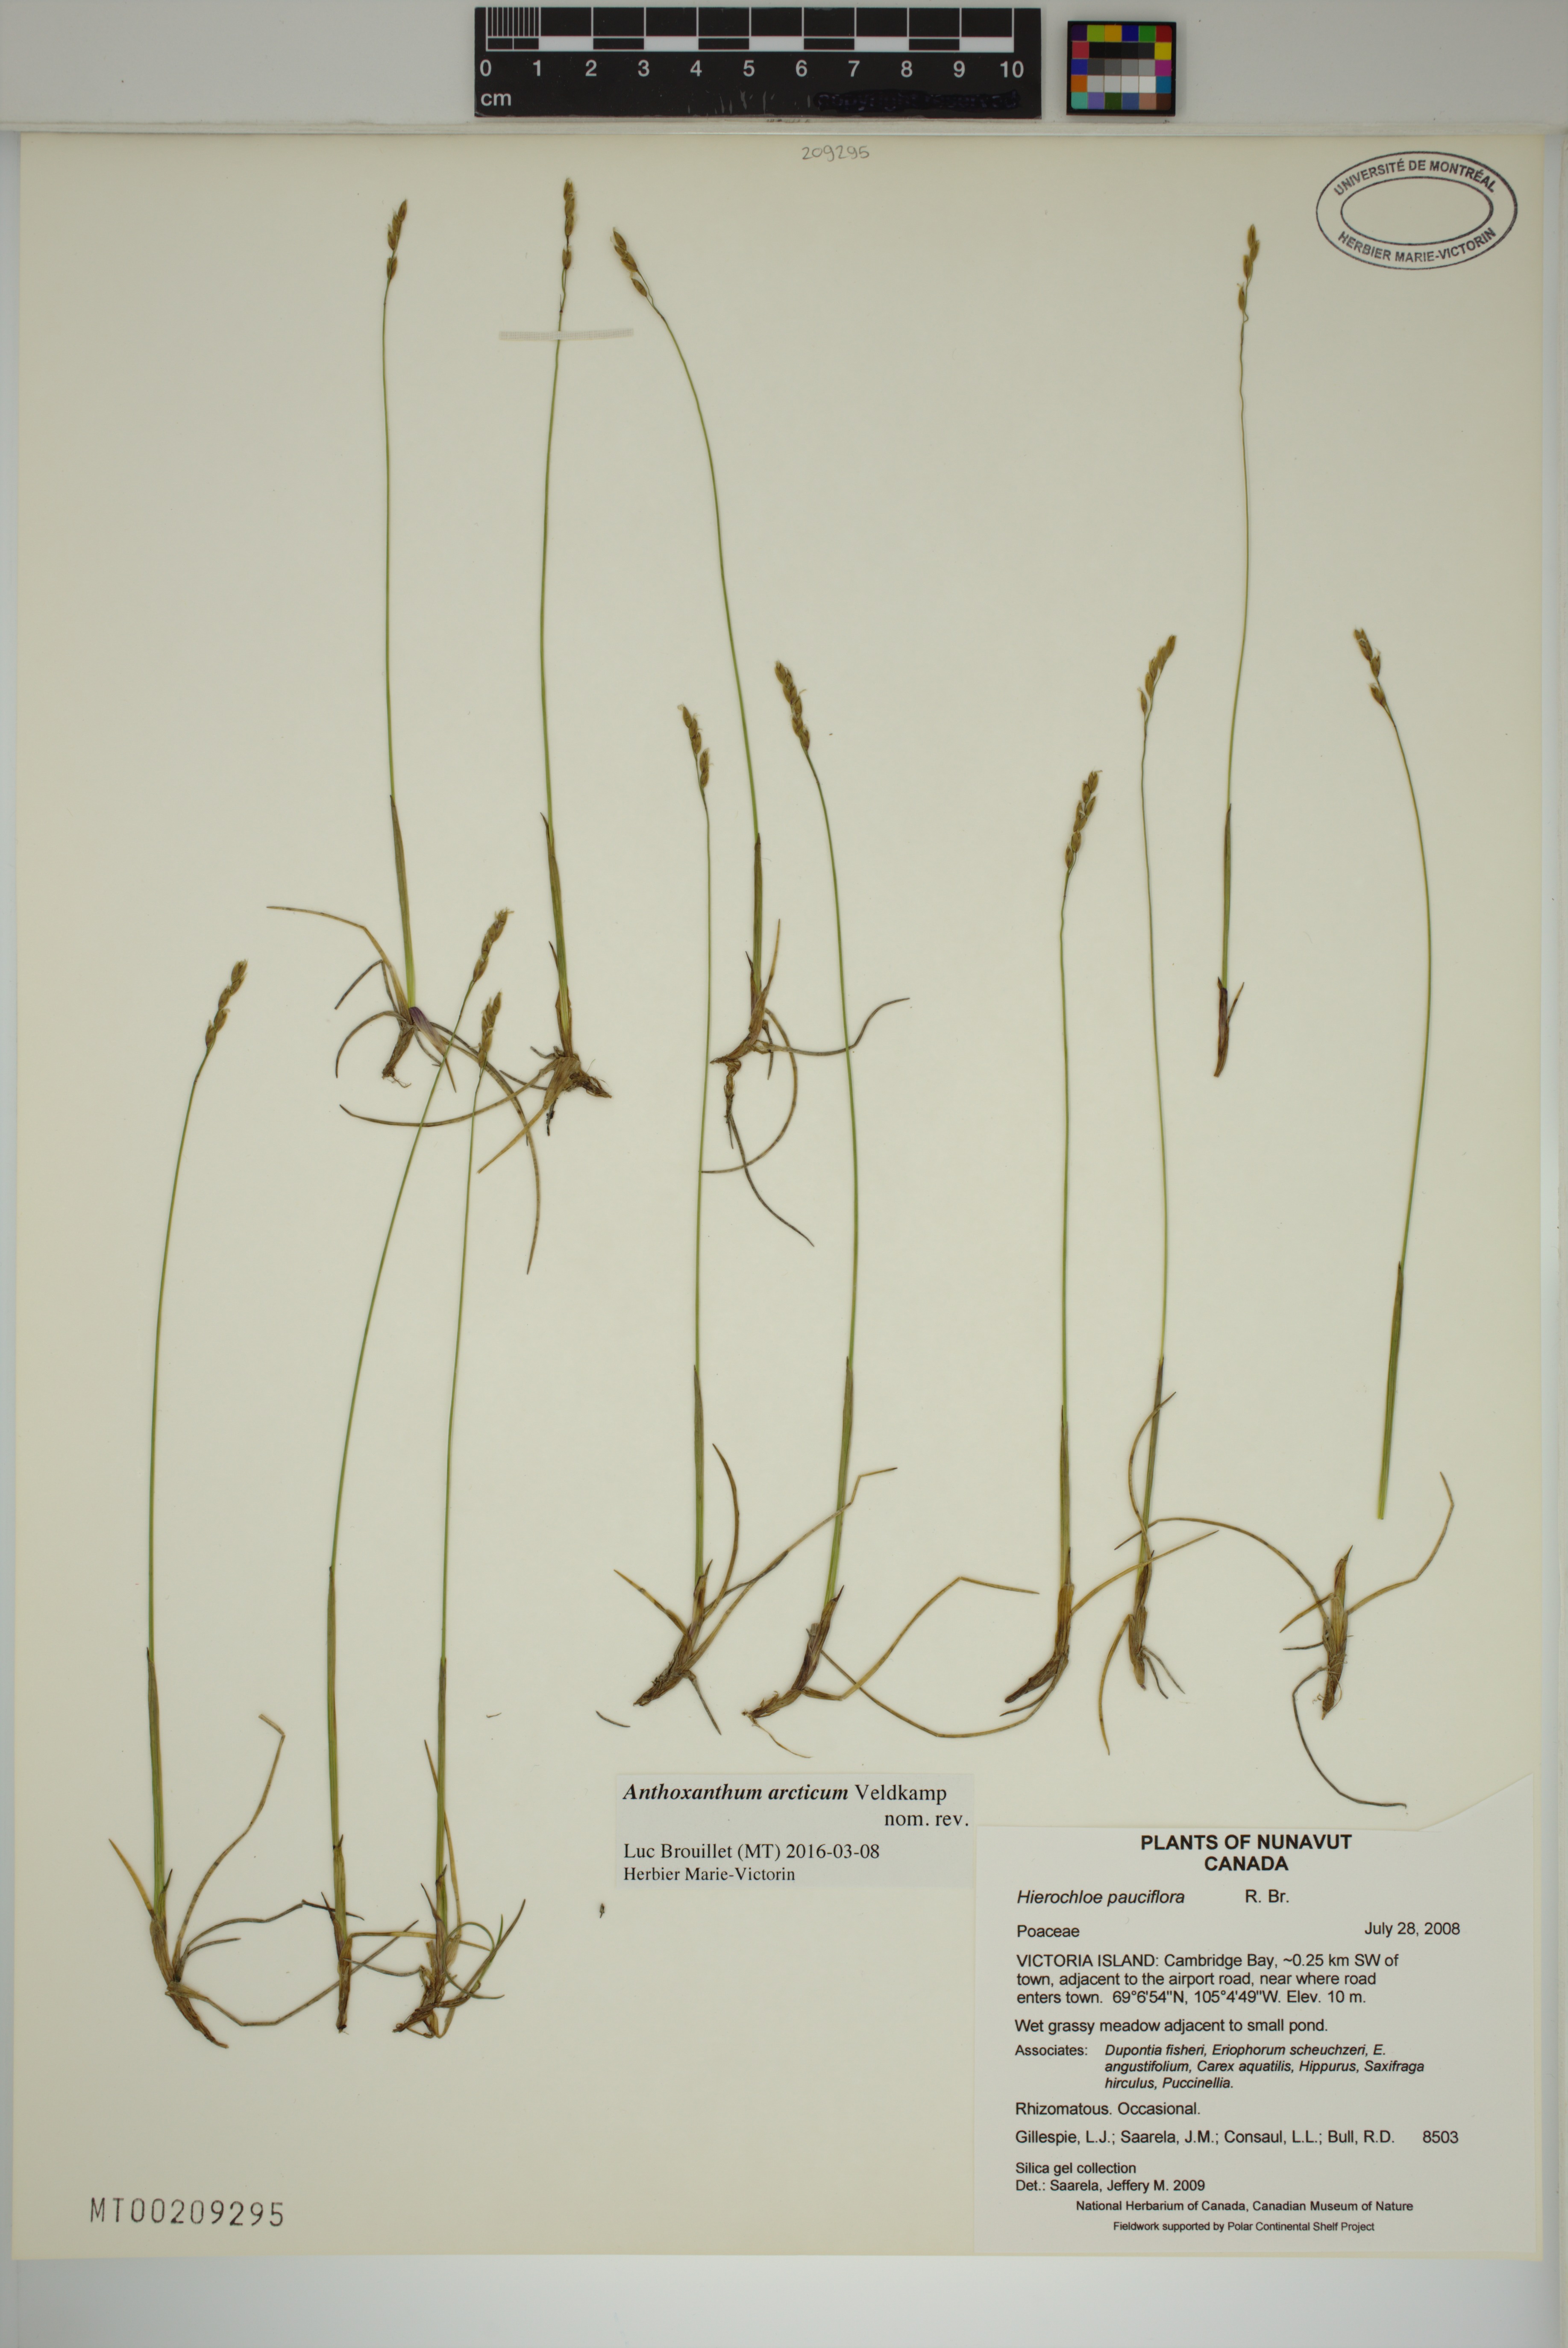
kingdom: Plantae
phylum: Tracheophyta
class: Liliopsida
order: Poales
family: Poaceae
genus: Anthoxanthum
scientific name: Anthoxanthum arcticum
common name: Arctic sweetgrass
